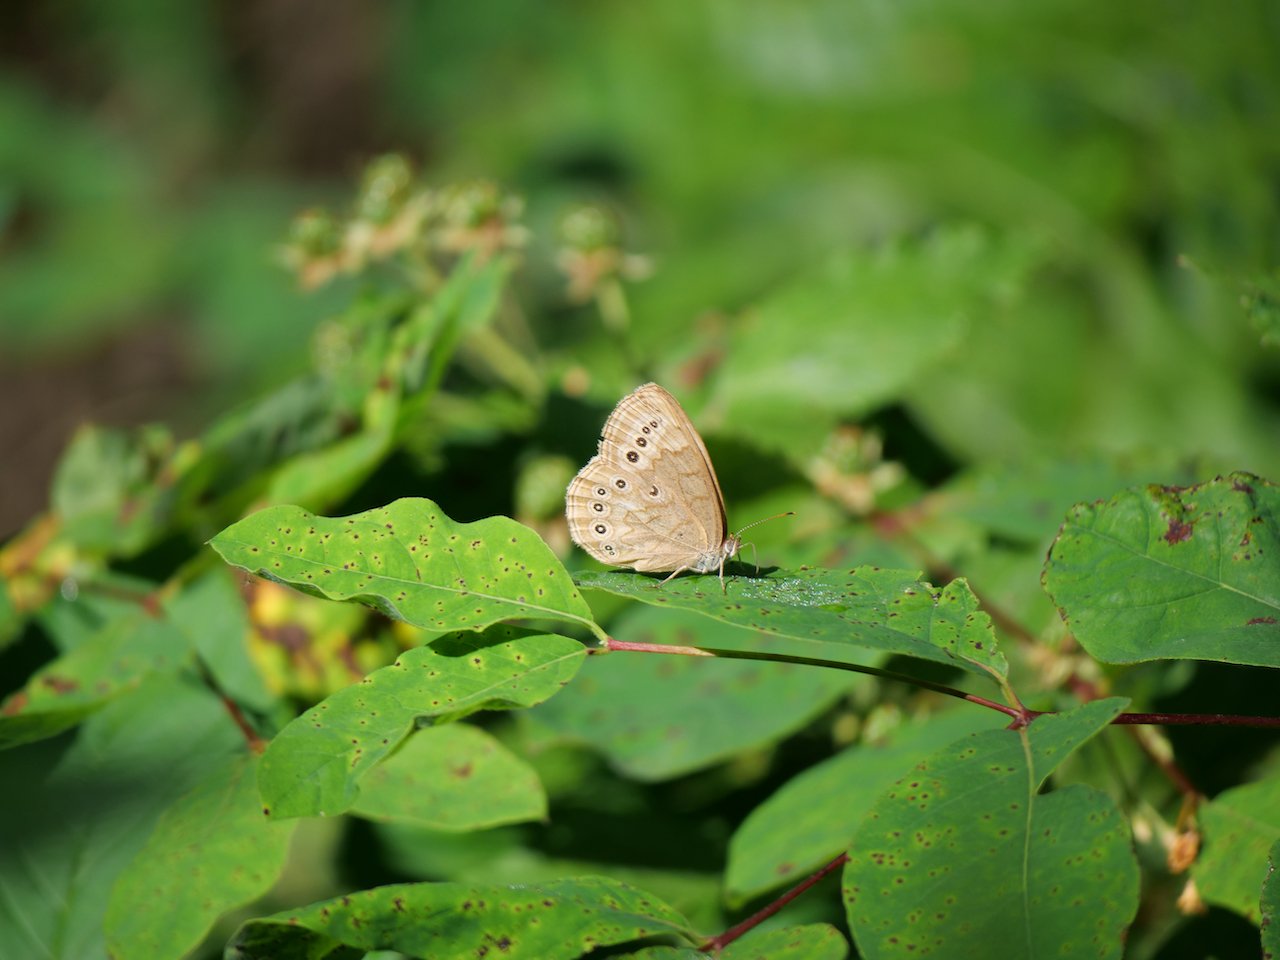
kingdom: Animalia
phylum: Arthropoda
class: Insecta
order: Lepidoptera
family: Nymphalidae
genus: Lethe
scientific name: Lethe eurydice
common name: Eyed Brown
